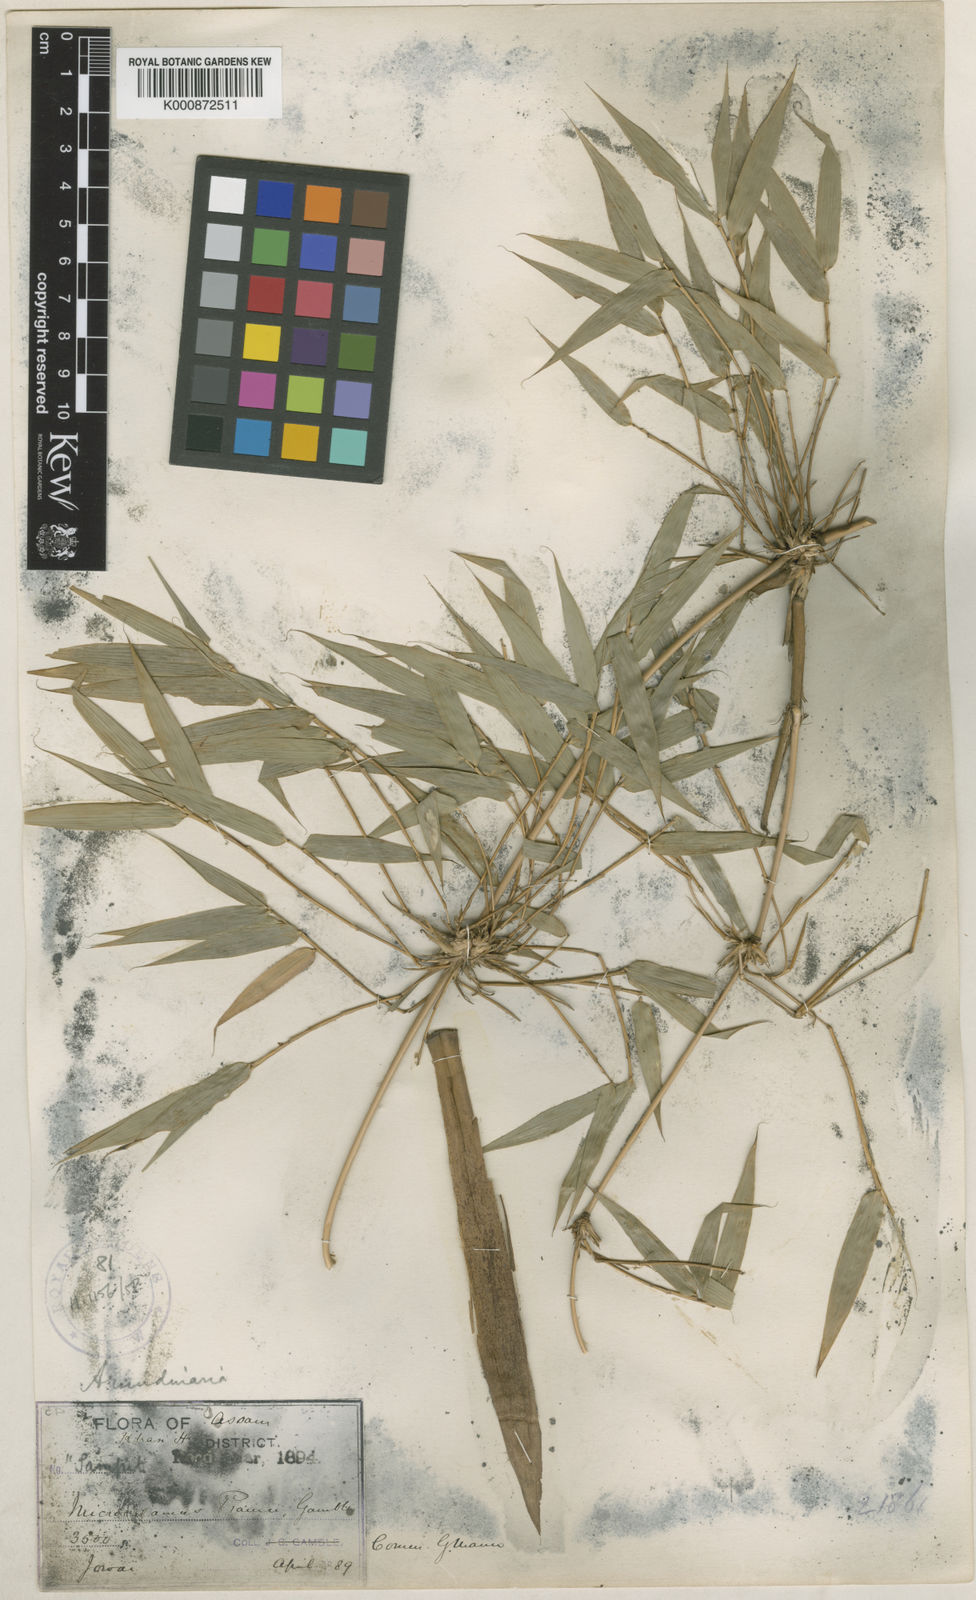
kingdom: Plantae
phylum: Tracheophyta
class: Liliopsida
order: Poales
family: Poaceae
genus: Neomicrocalamus
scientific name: Neomicrocalamus prainii
